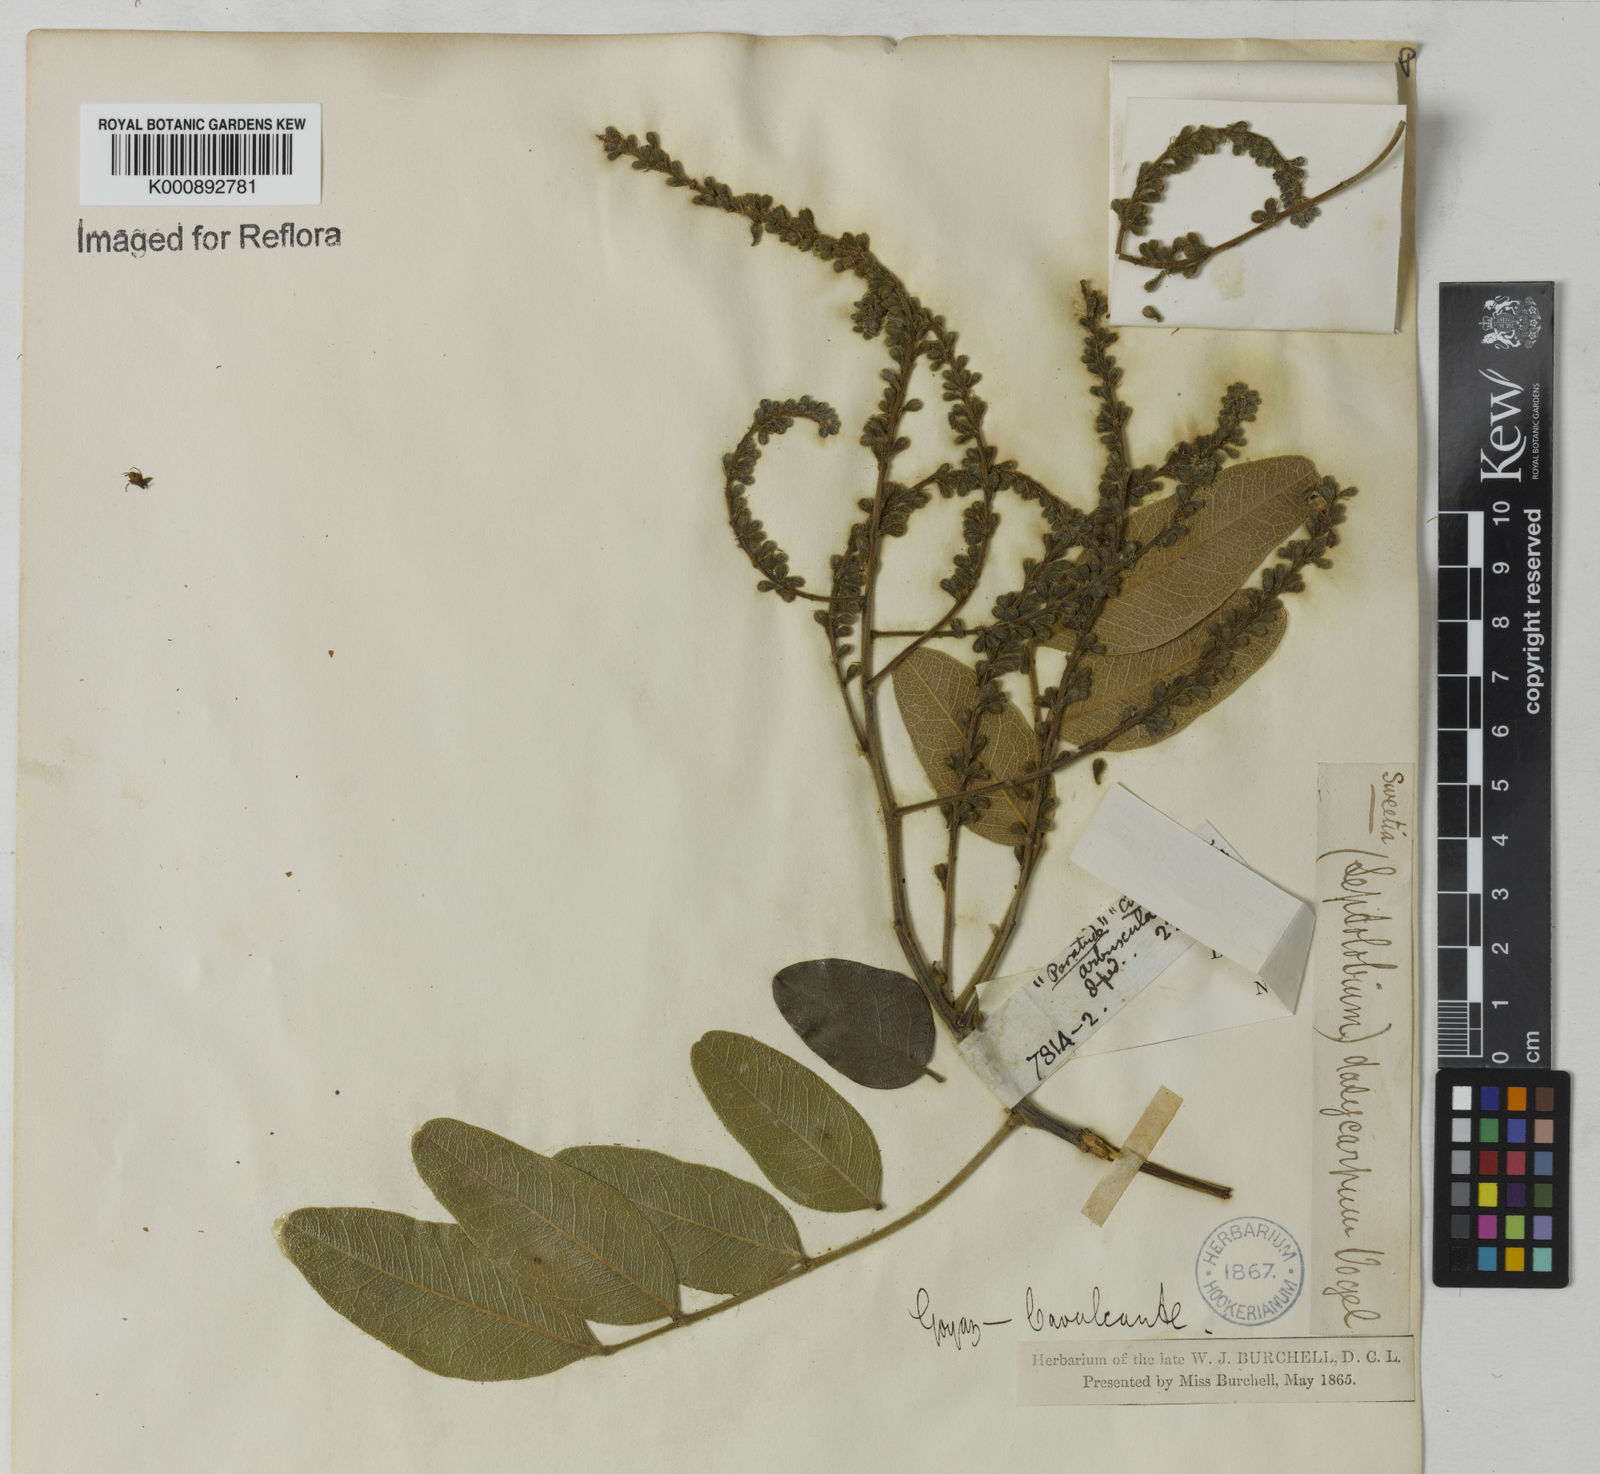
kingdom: Plantae
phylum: Tracheophyta
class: Magnoliopsida
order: Fabales
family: Fabaceae
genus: Leptolobium
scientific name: Leptolobium
